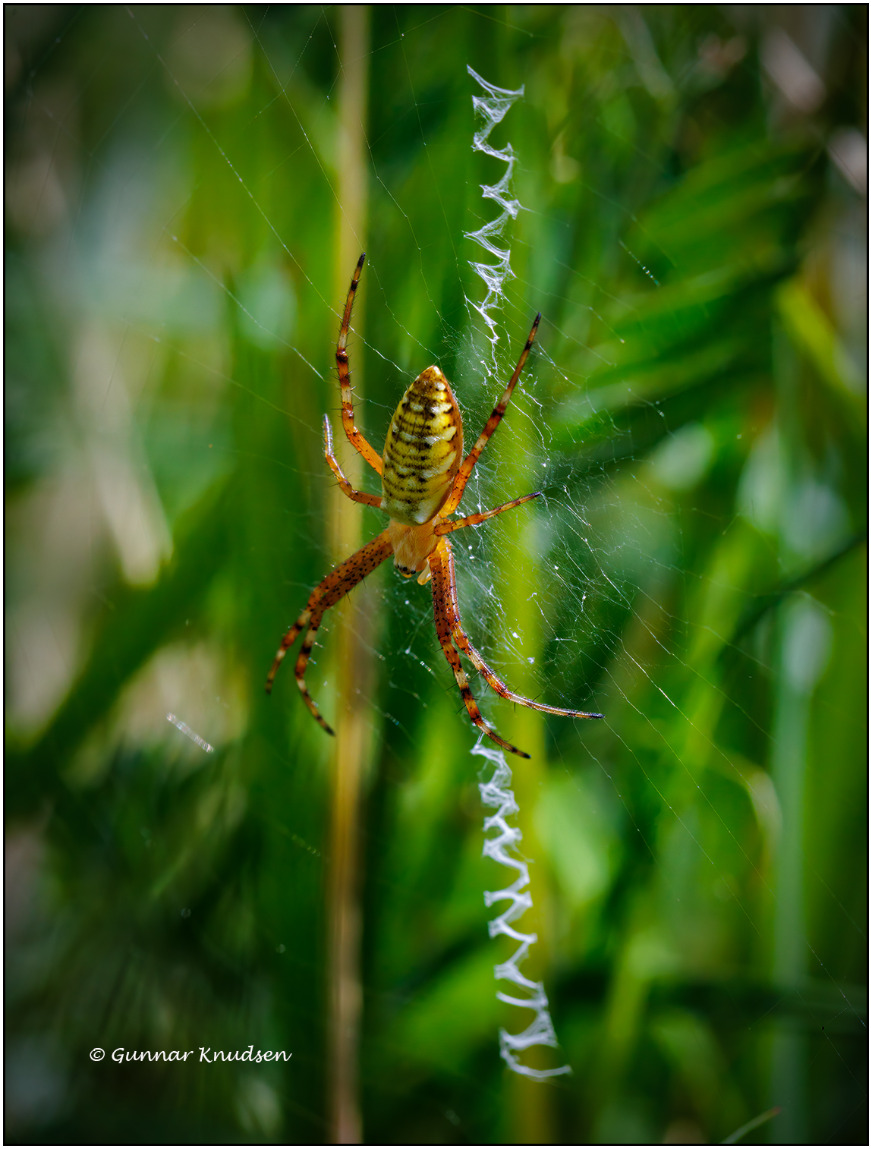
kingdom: Animalia
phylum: Arthropoda
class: Arachnida
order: Araneae
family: Araneidae
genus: Argiope
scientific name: Argiope bruennichi
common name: Hvepseedderkop
